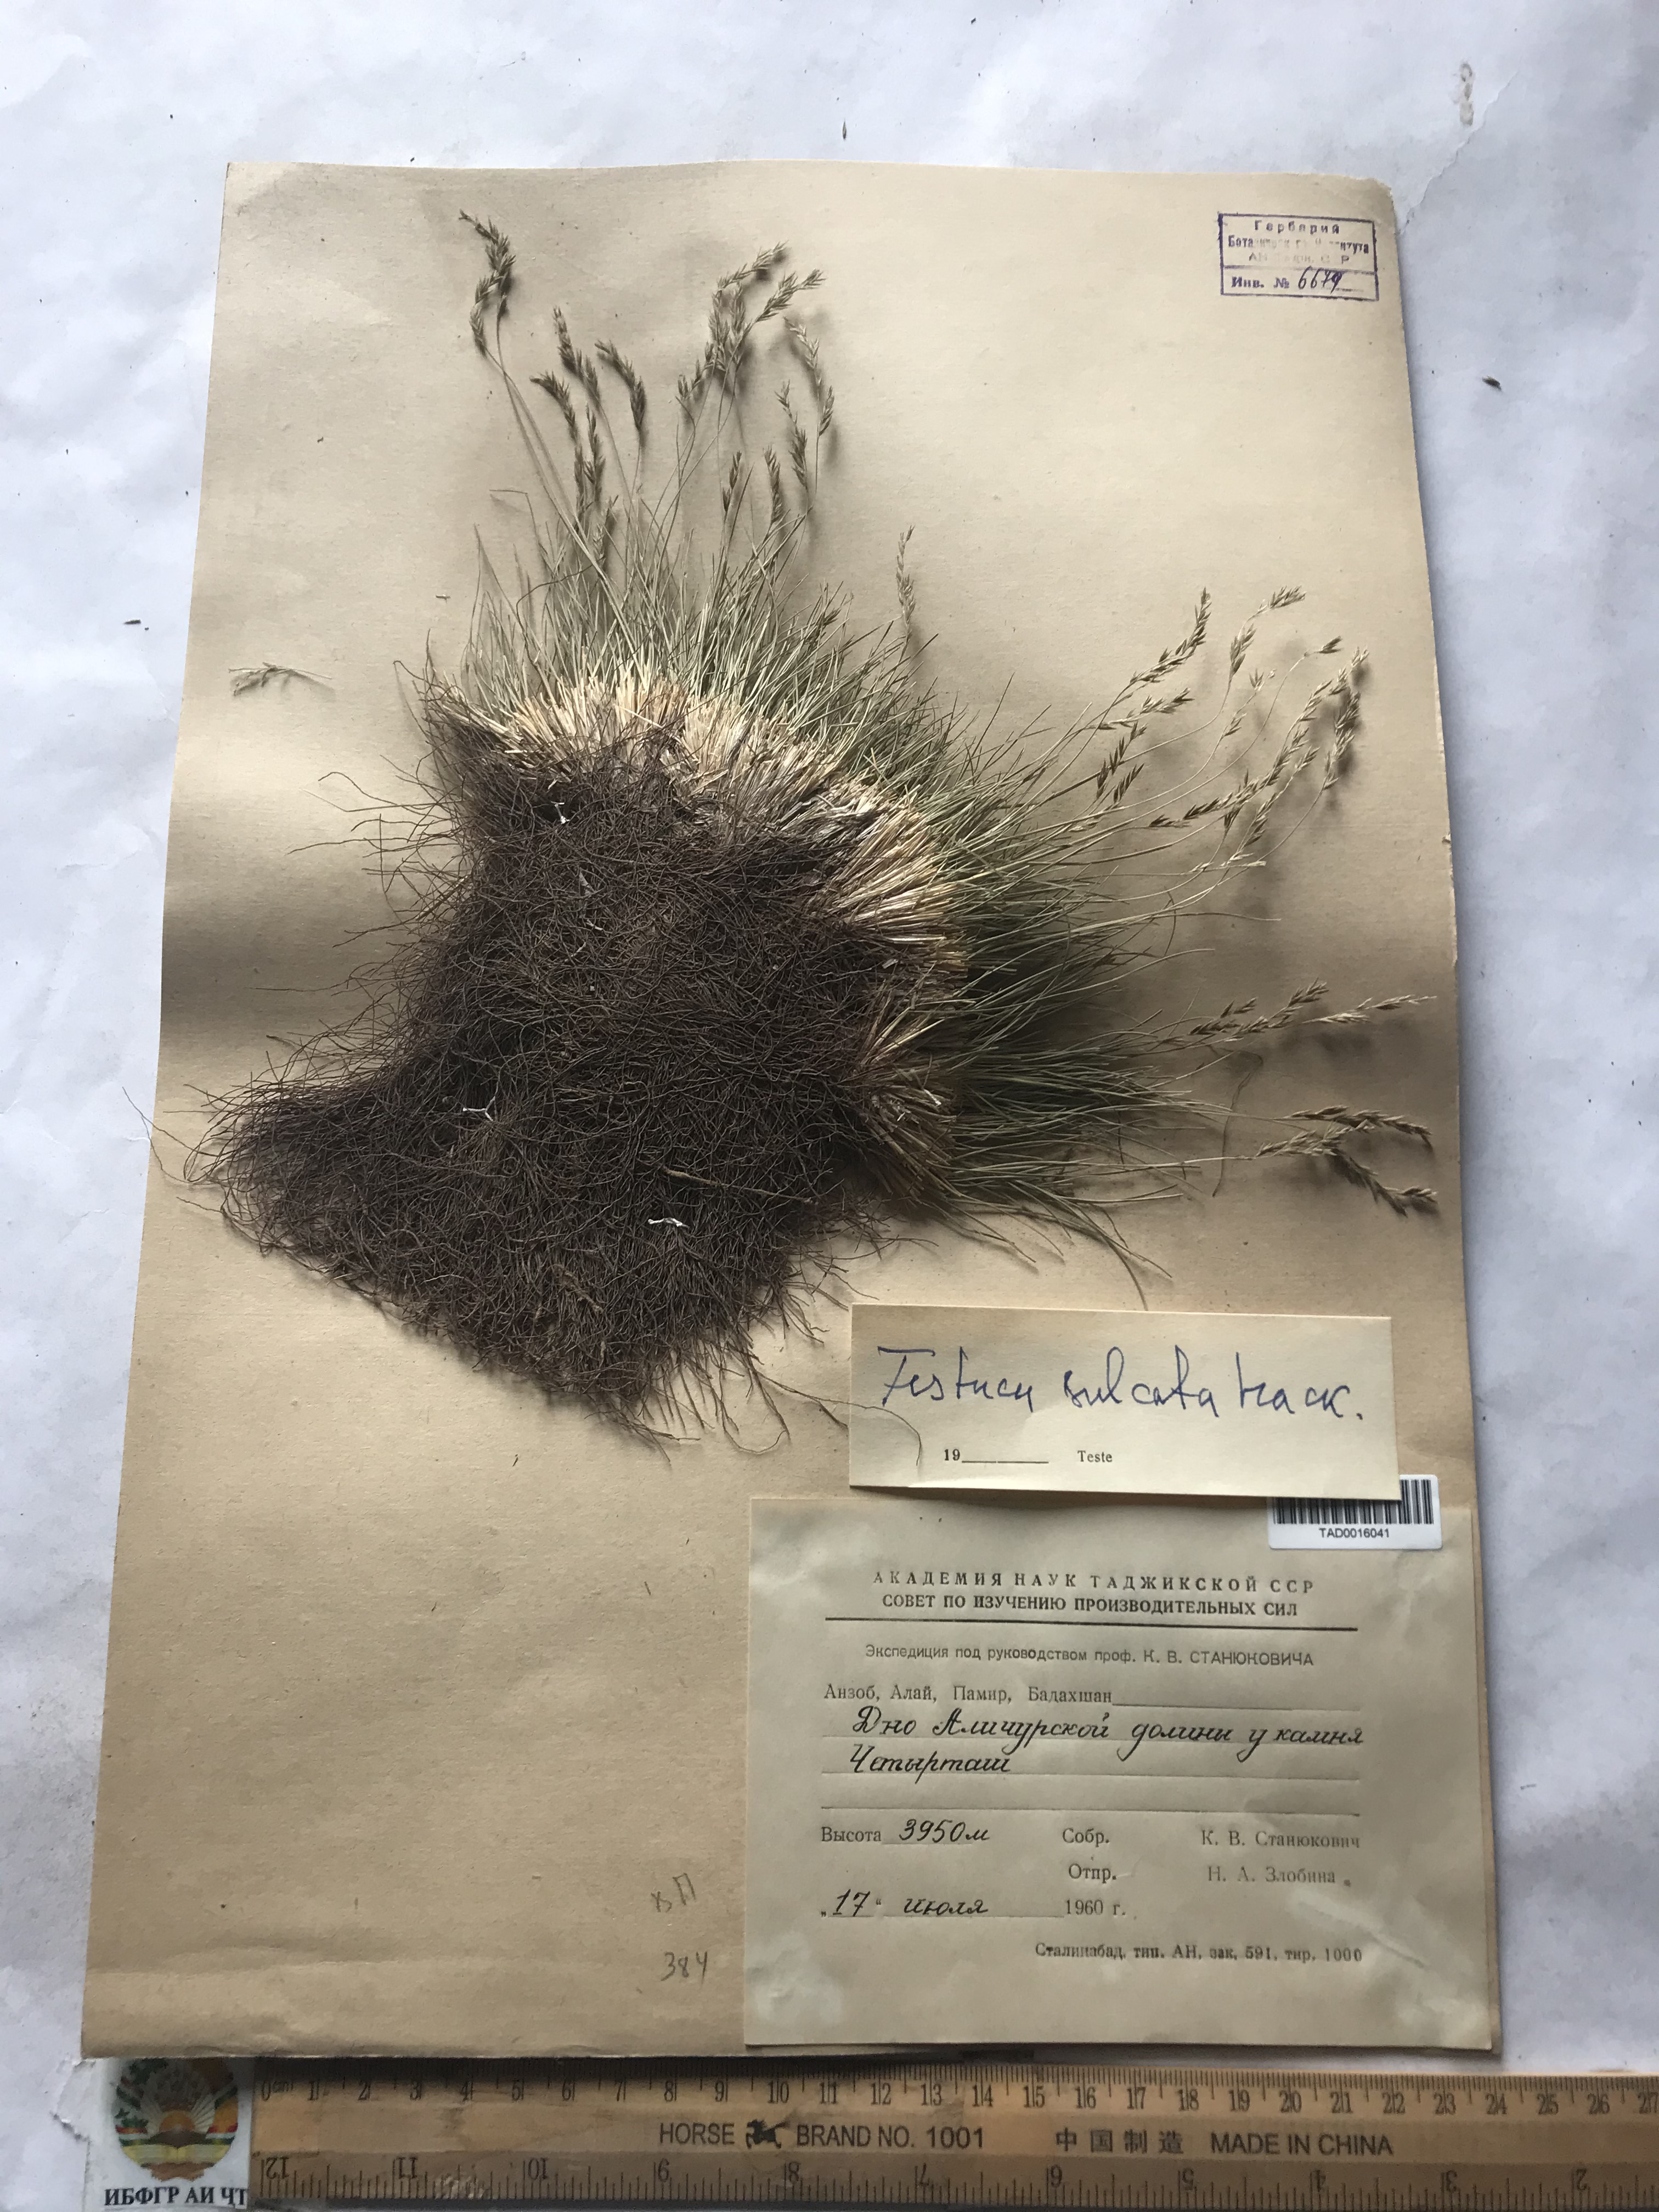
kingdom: Plantae
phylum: Tracheophyta
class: Liliopsida
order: Poales
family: Poaceae
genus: Festuca
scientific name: Festuca sulcata
